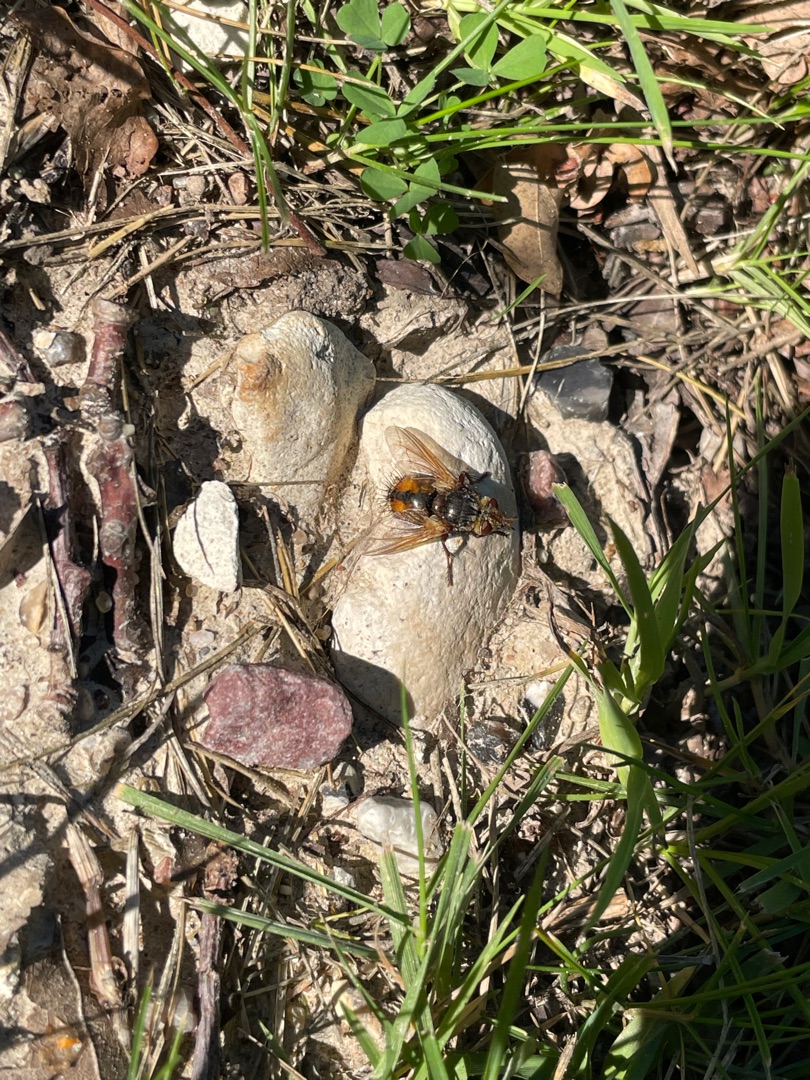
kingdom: Animalia
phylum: Arthropoda
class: Insecta
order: Diptera
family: Tachinidae
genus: Tachina
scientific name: Tachina fera
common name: Mellemfluen oskar
